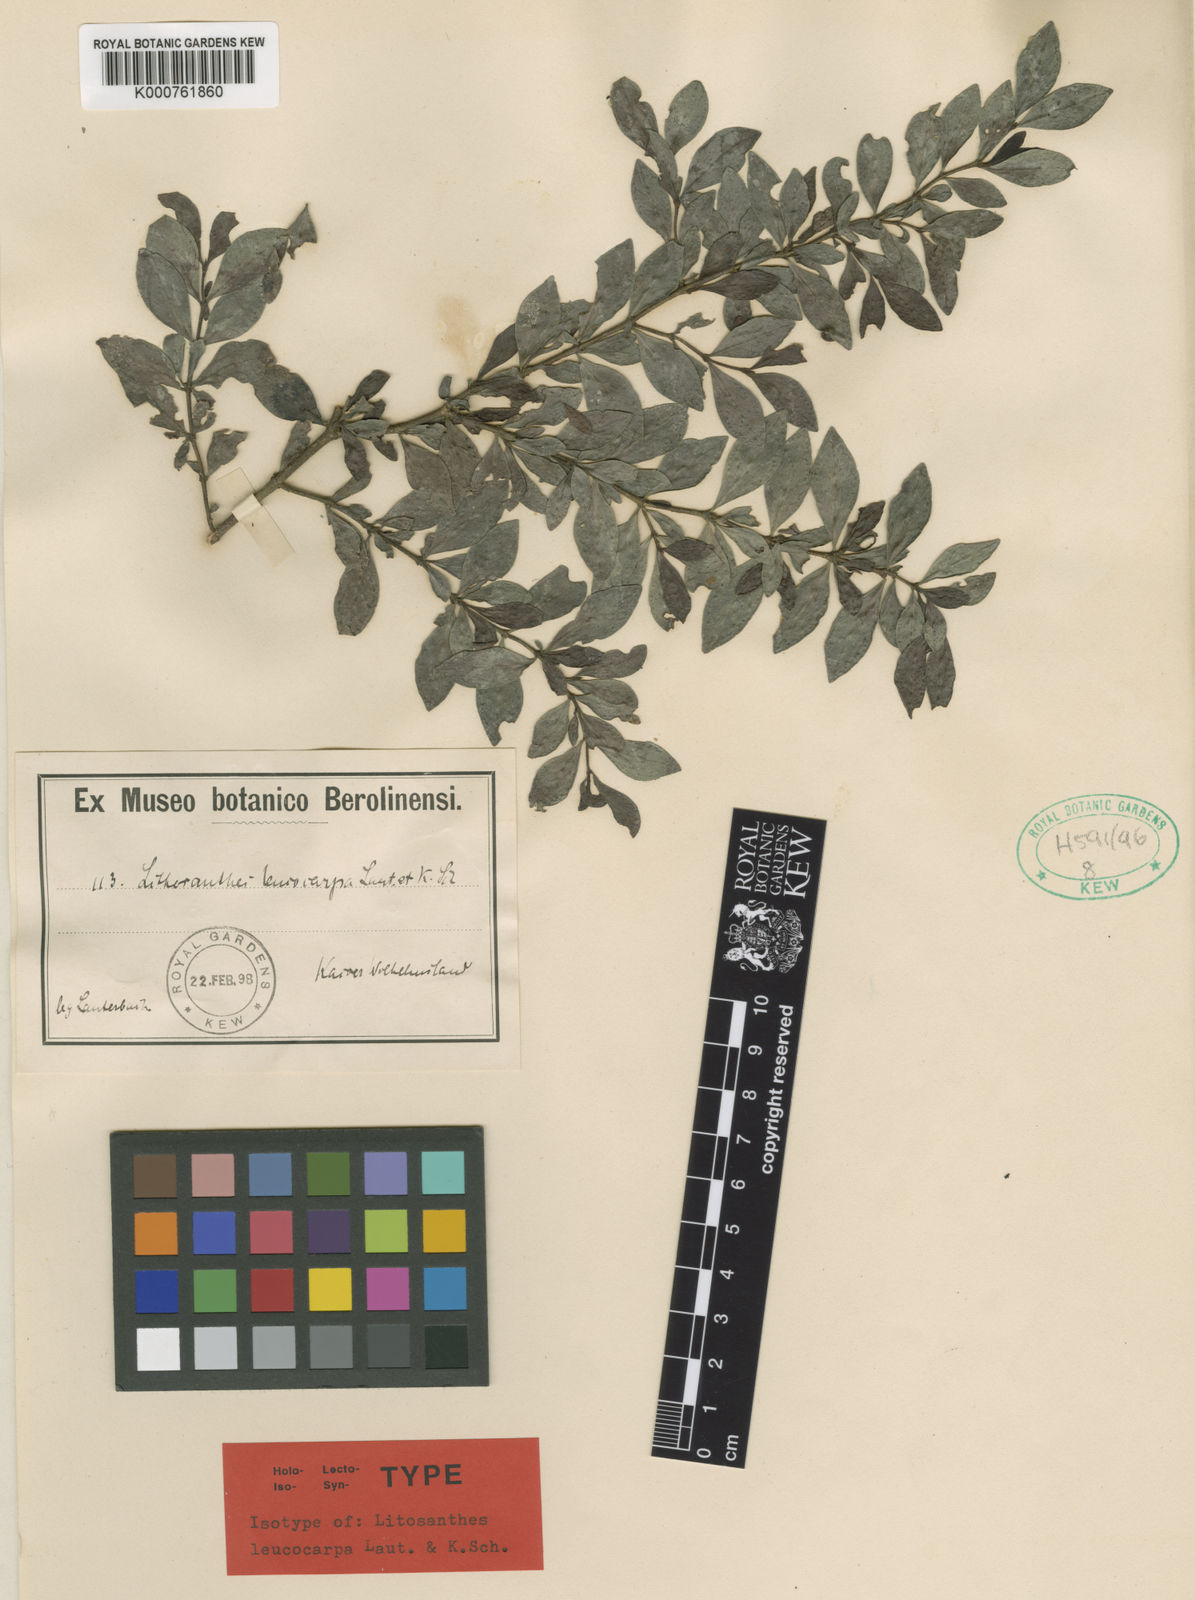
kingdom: Plantae
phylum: Tracheophyta
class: Magnoliopsida
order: Gentianales
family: Rubiaceae
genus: Amaracarpus
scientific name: Amaracarpus grandifolius
